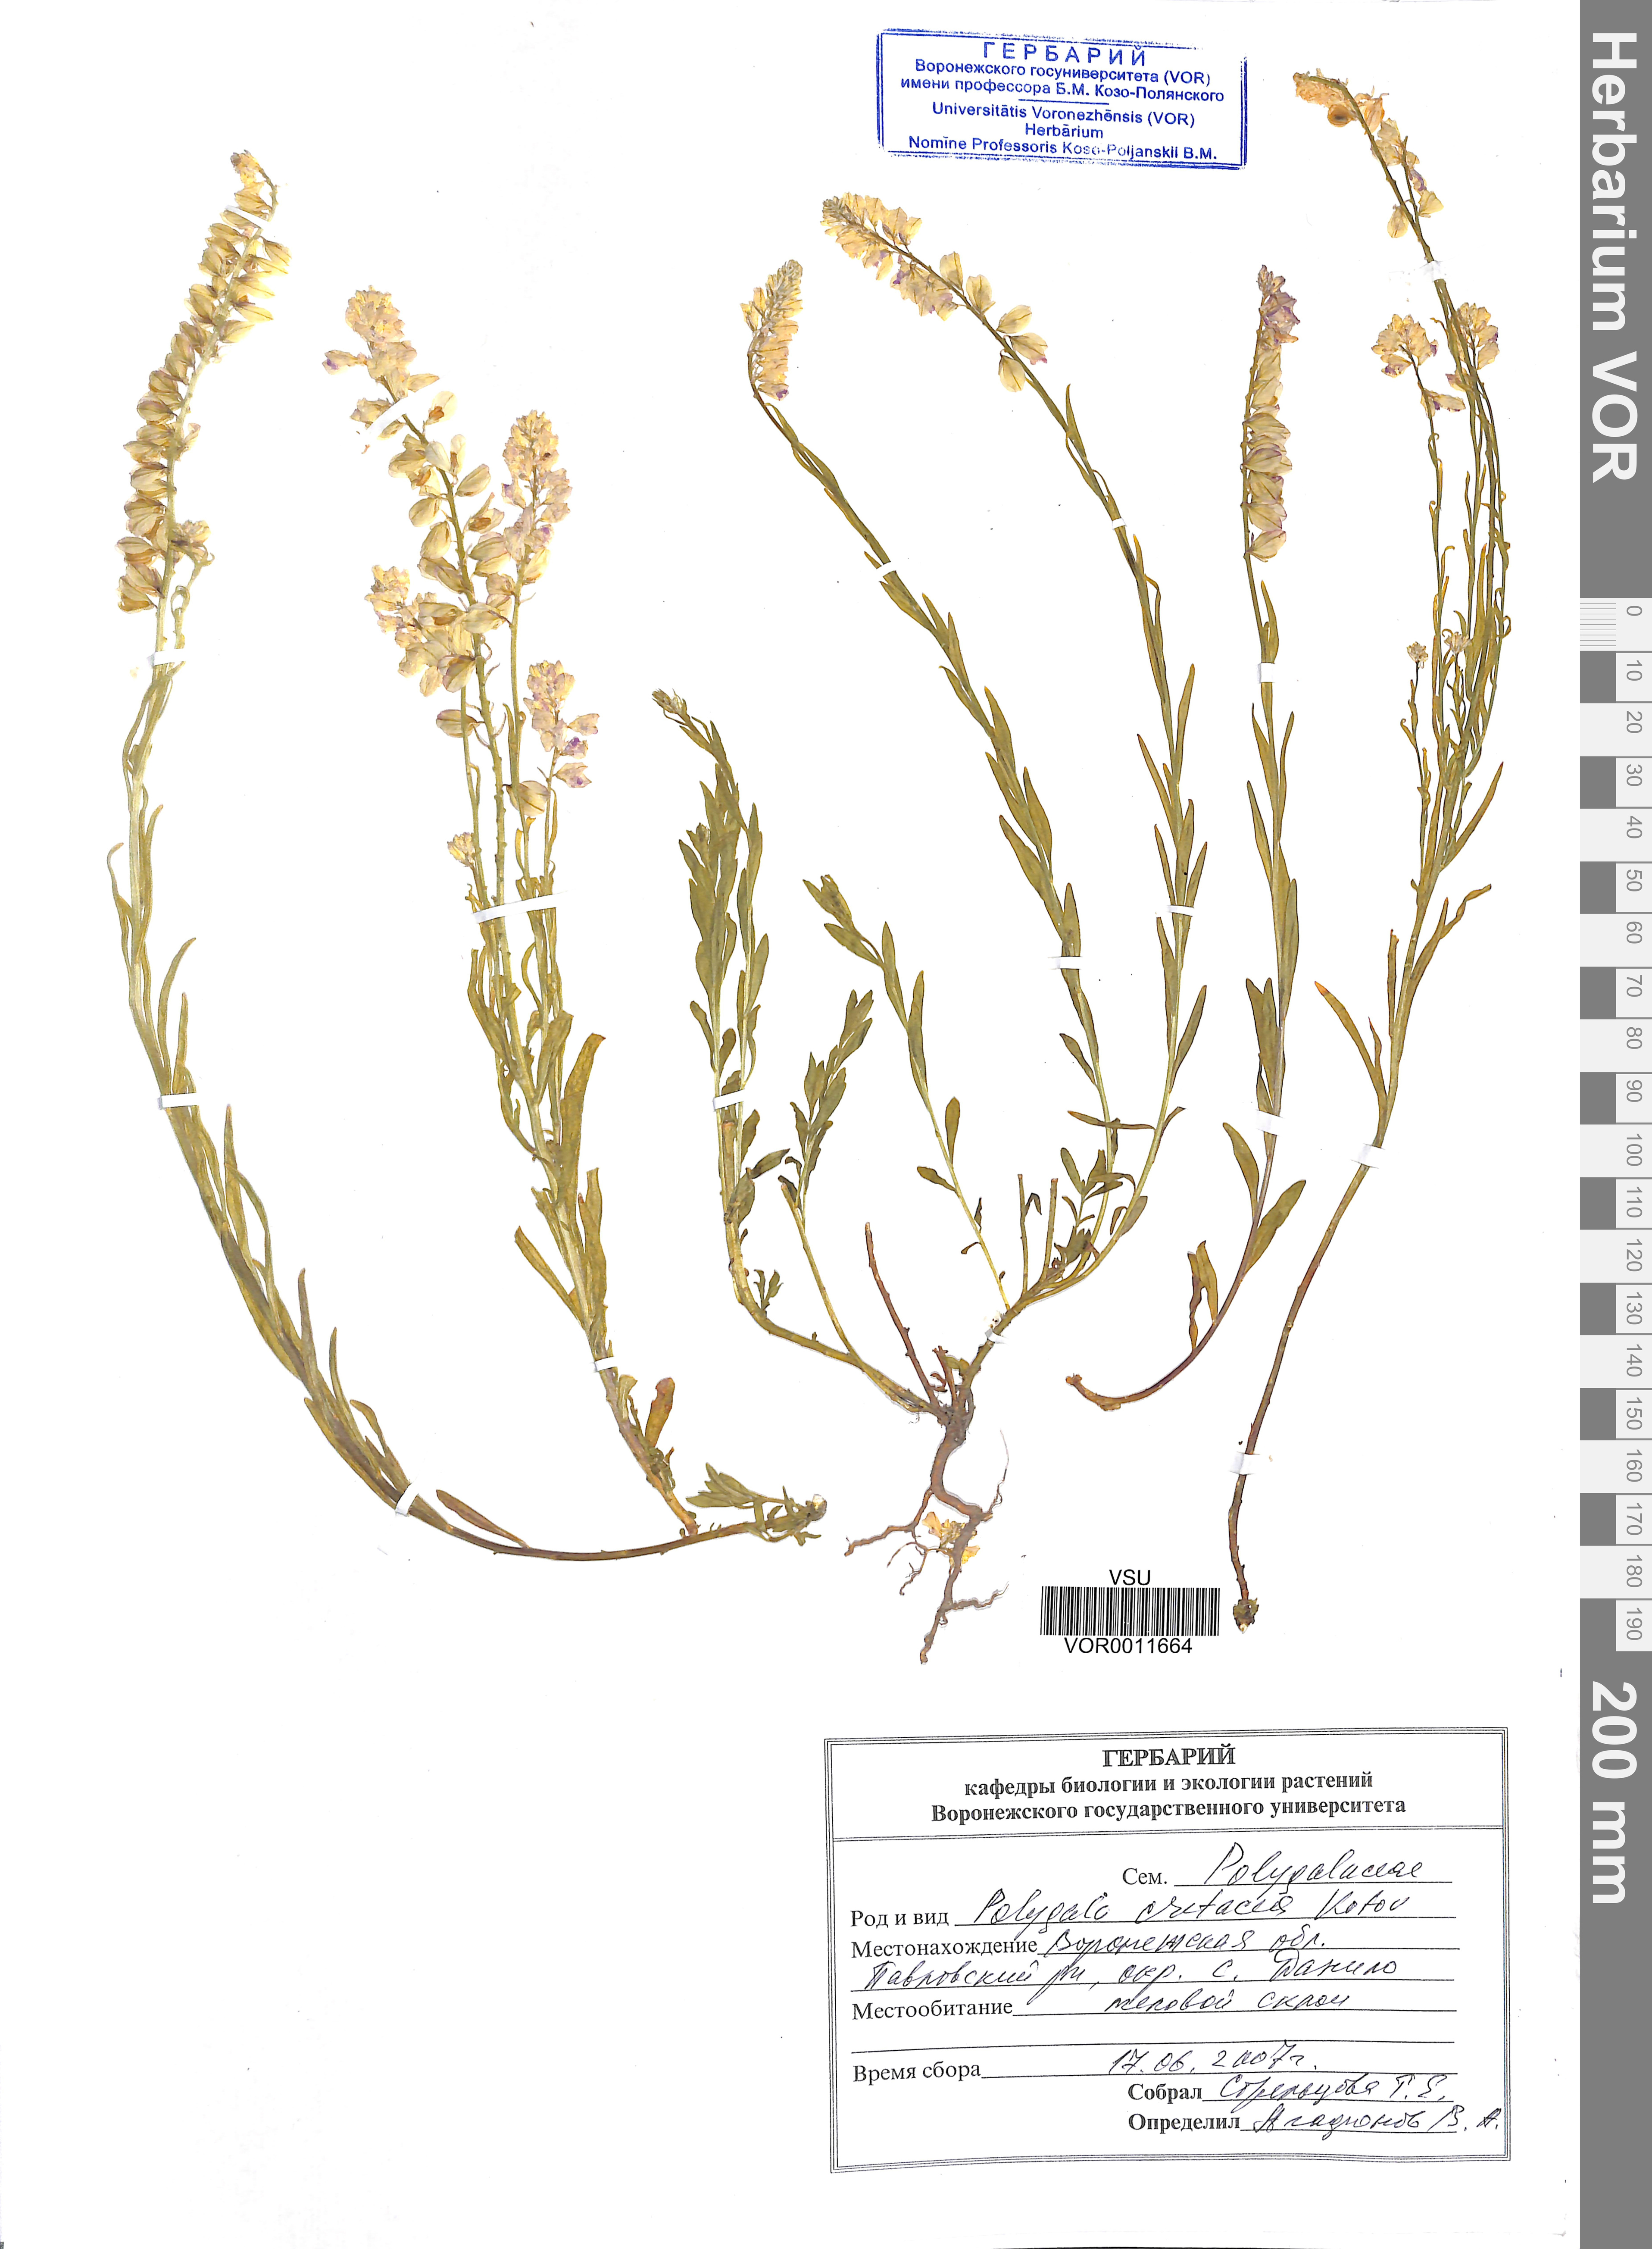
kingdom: Plantae
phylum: Tracheophyta
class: Magnoliopsida
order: Fabales
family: Polygalaceae
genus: Polygala
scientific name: Polygala nicaeensis
